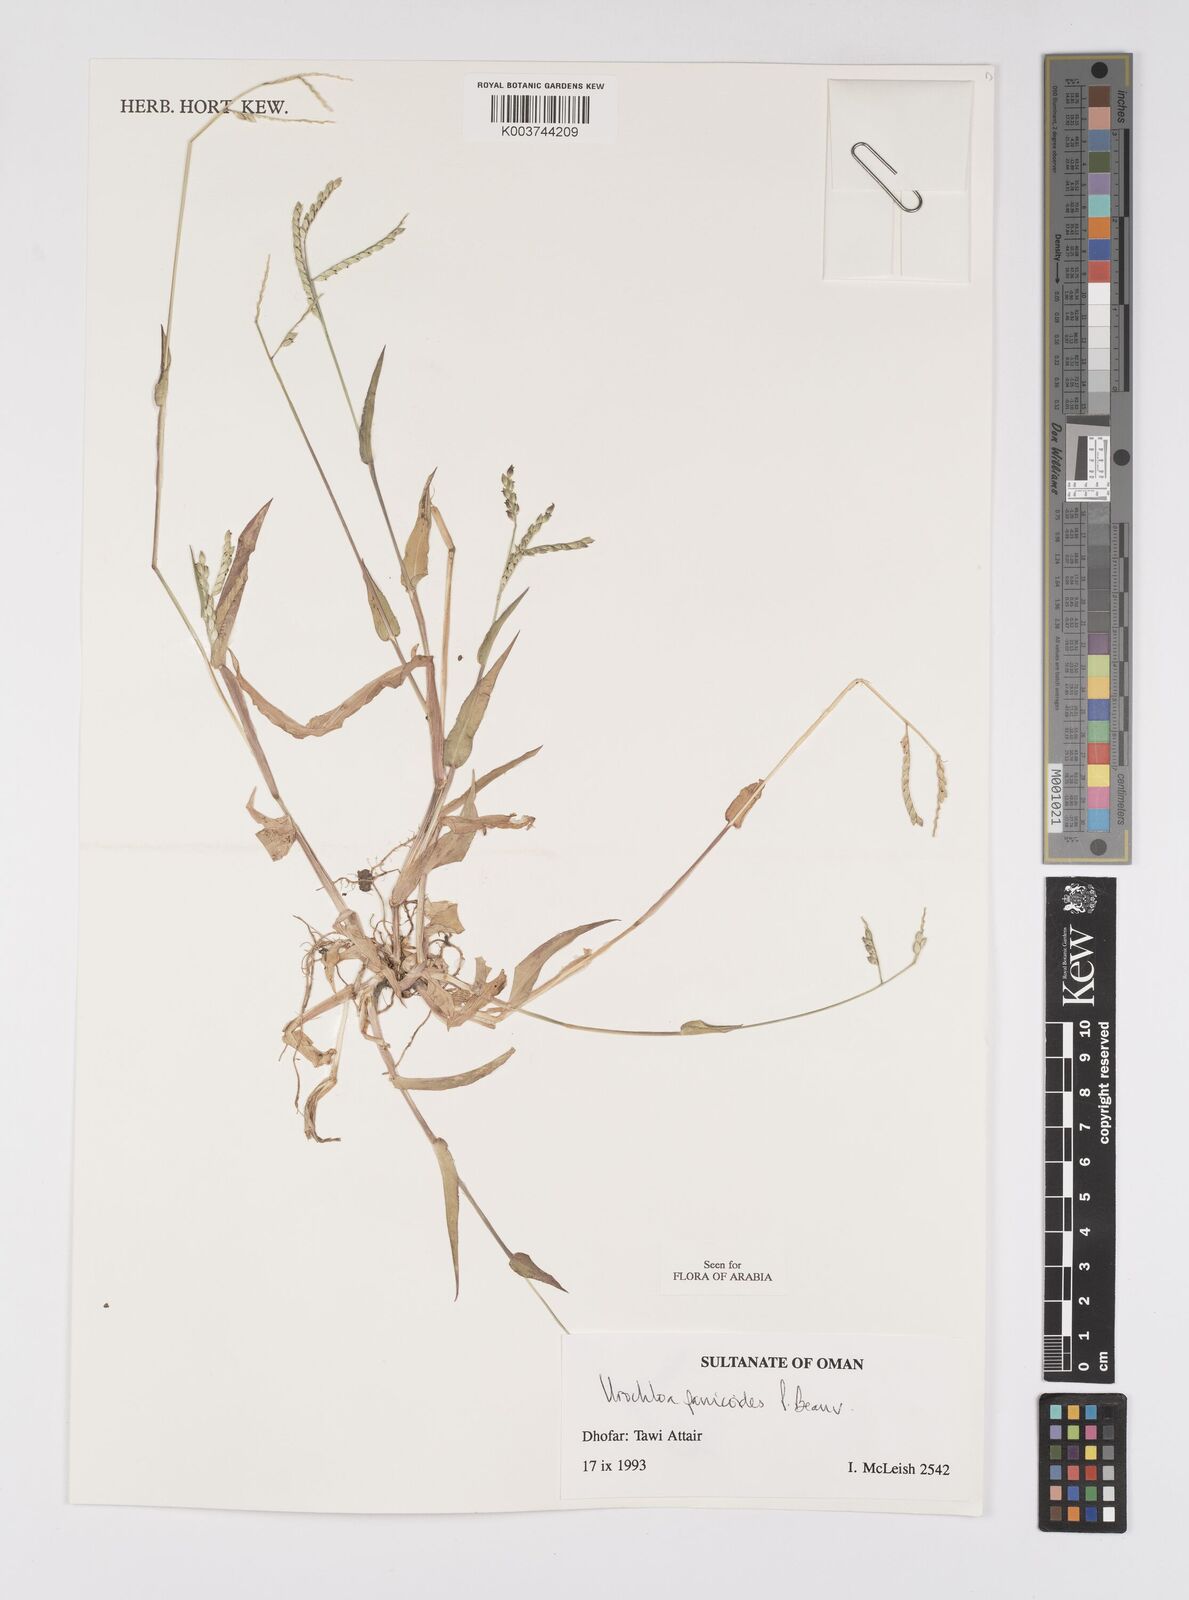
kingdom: Plantae
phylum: Tracheophyta
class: Liliopsida
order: Poales
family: Poaceae
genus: Urochloa
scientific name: Urochloa panicoides
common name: Sharp-flowered signal-grass
